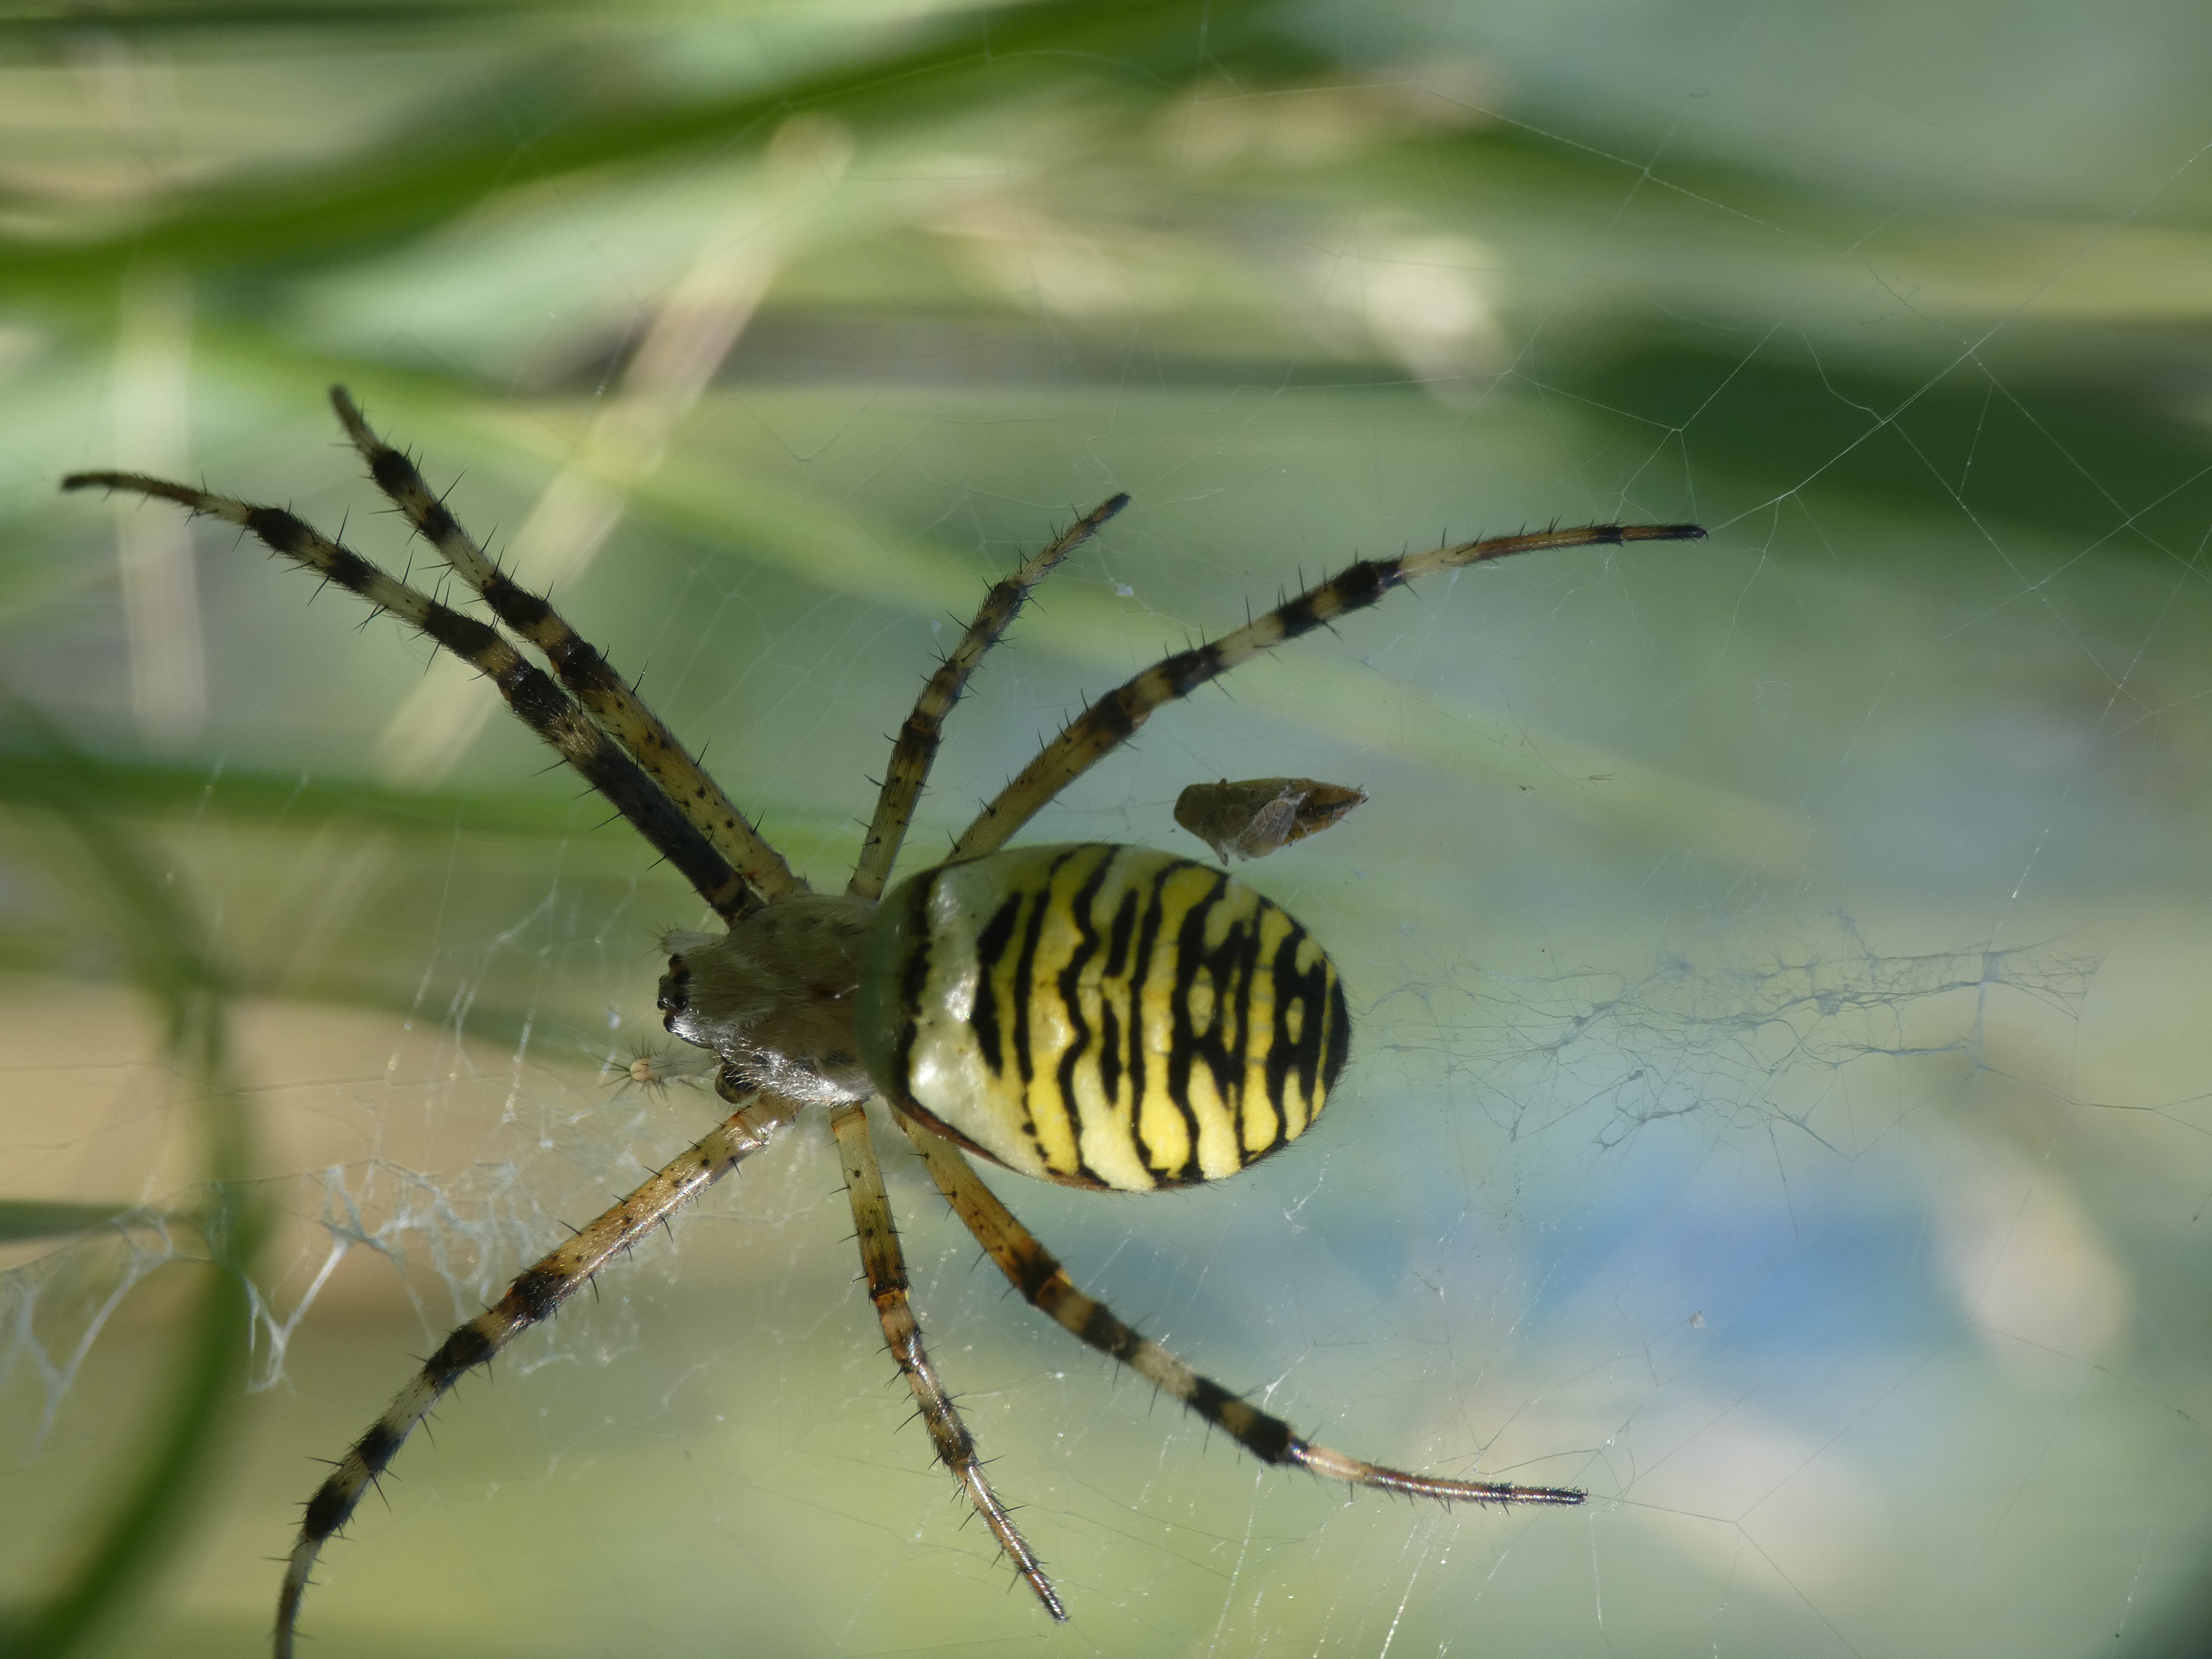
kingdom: Animalia
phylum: Arthropoda
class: Arachnida
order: Araneae
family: Araneidae
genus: Argiope
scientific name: Argiope bruennichi
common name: Hvepseedderkop
